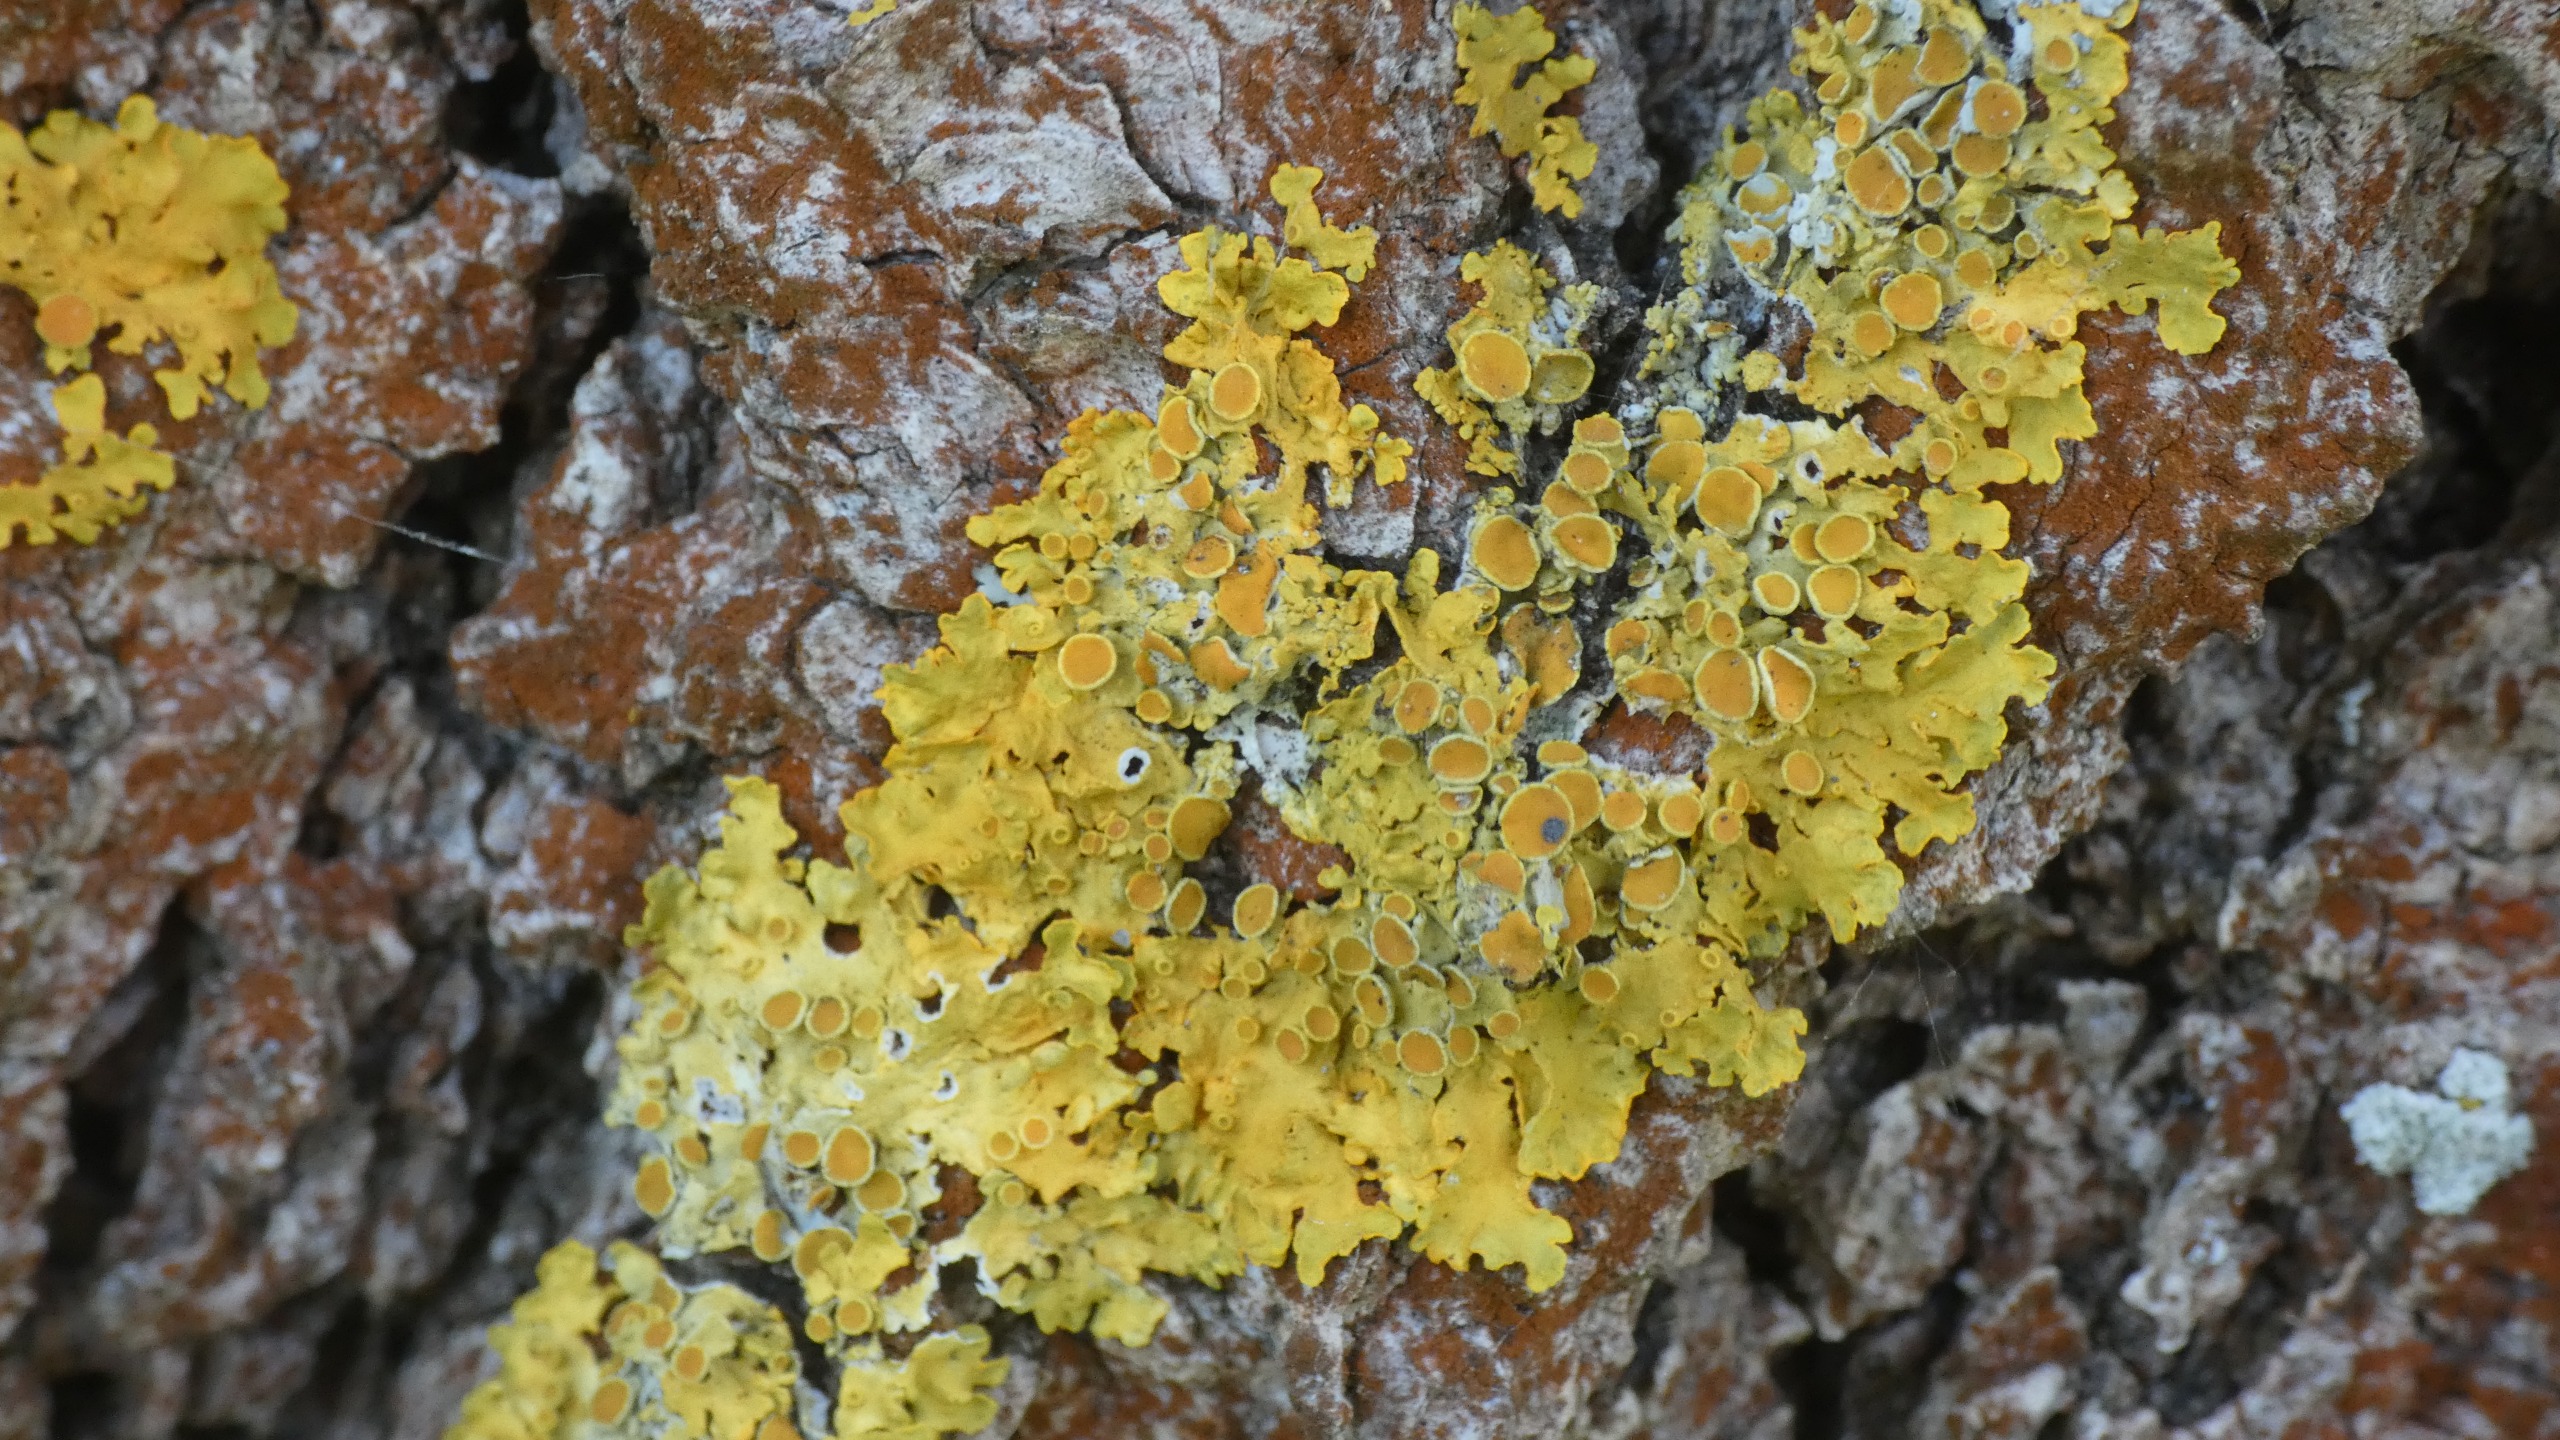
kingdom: Fungi
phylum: Ascomycota
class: Lecanoromycetes
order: Teloschistales
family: Teloschistaceae
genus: Xanthoria
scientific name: Xanthoria parietina
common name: Almindelig væggelav
